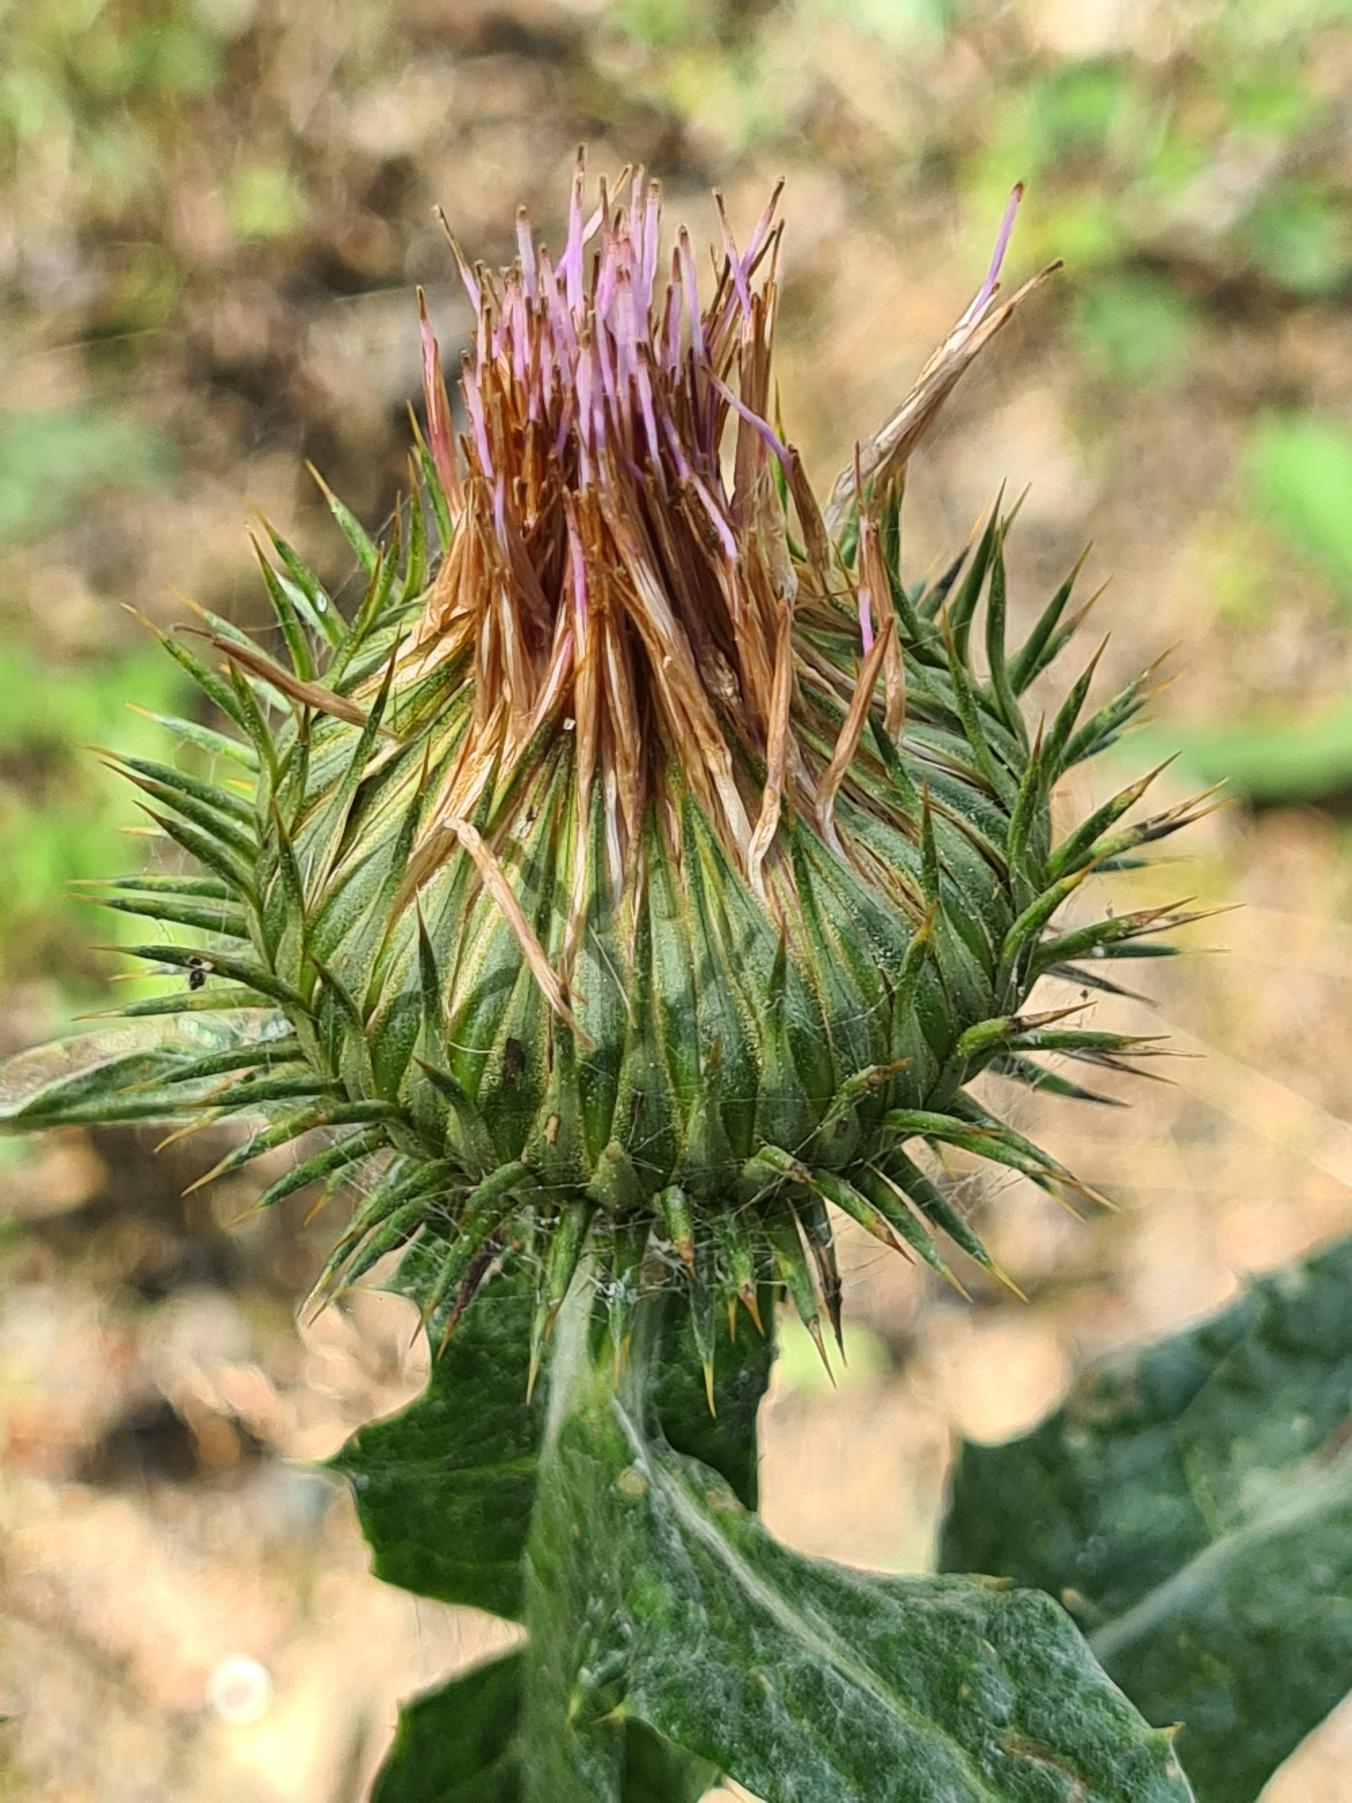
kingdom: Plantae
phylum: Tracheophyta
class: Magnoliopsida
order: Asterales
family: Asteraceae
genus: Onopordum
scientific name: Onopordum acanthium
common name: Æselfoder
